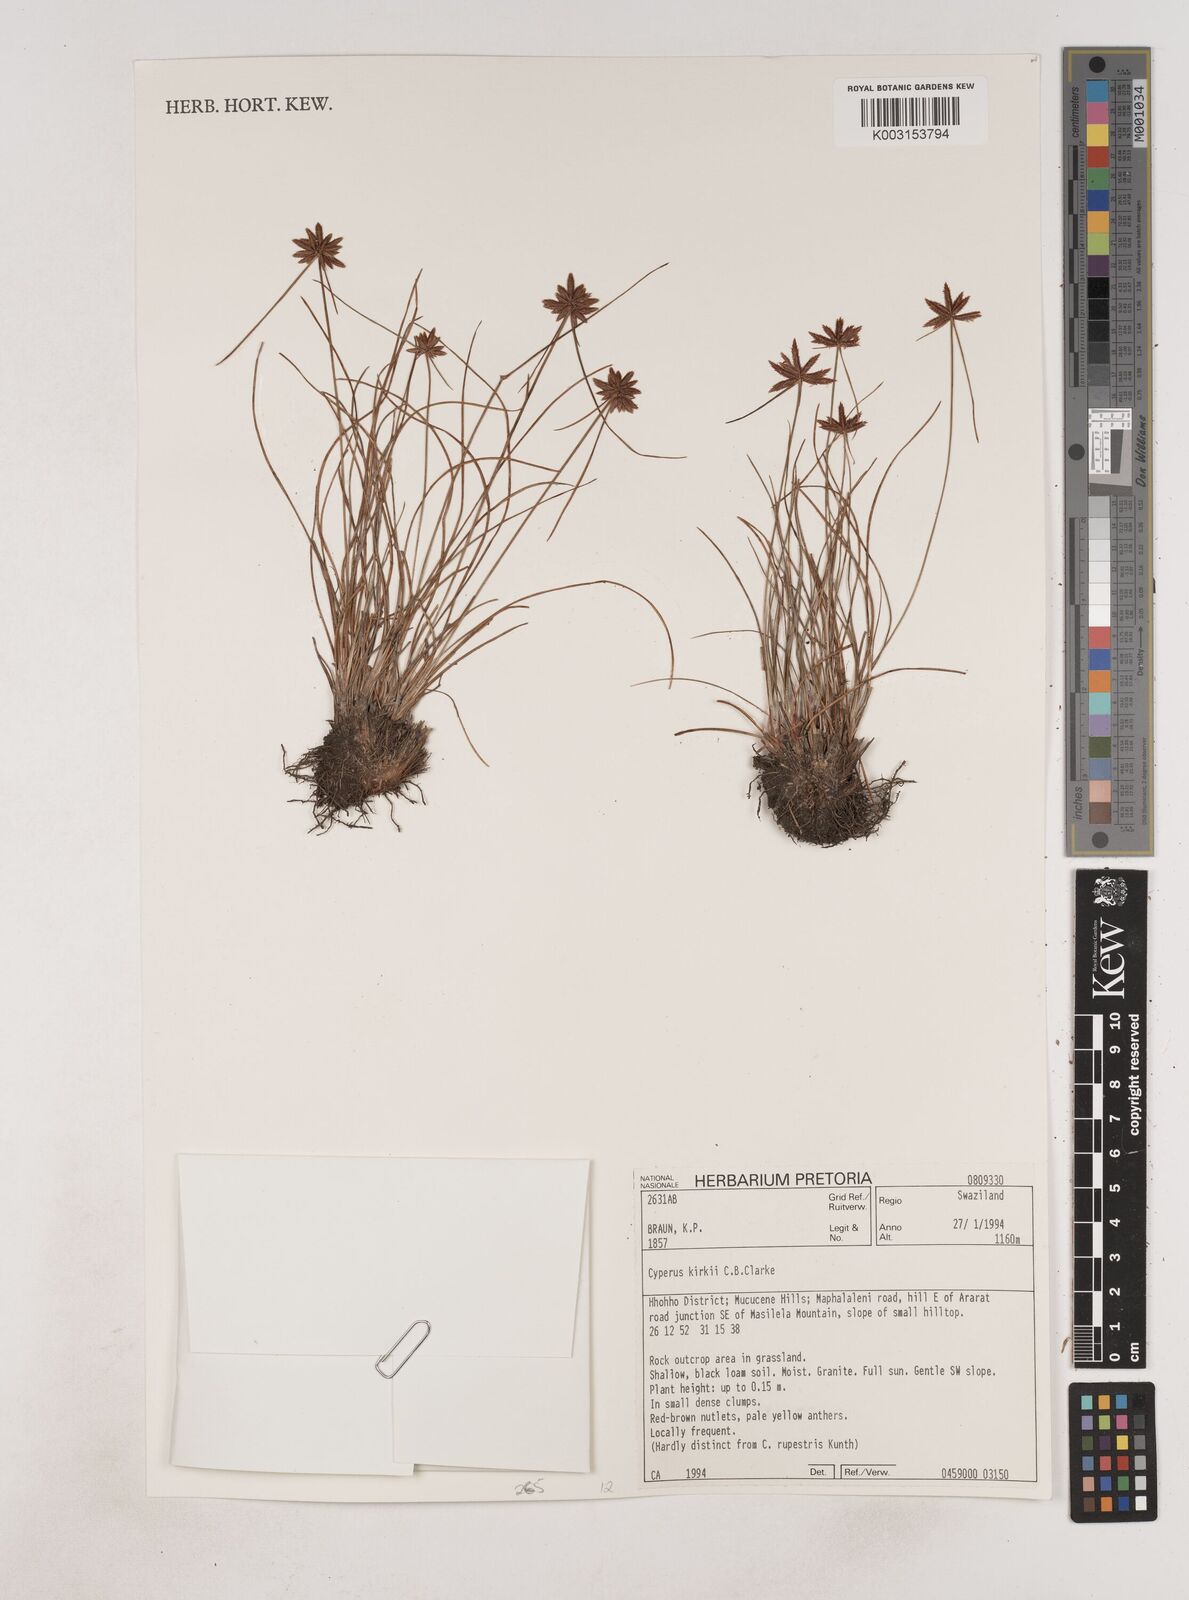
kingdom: Plantae
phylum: Tracheophyta
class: Liliopsida
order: Poales
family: Cyperaceae
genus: Cyperus
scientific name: Cyperus semitrifidus
